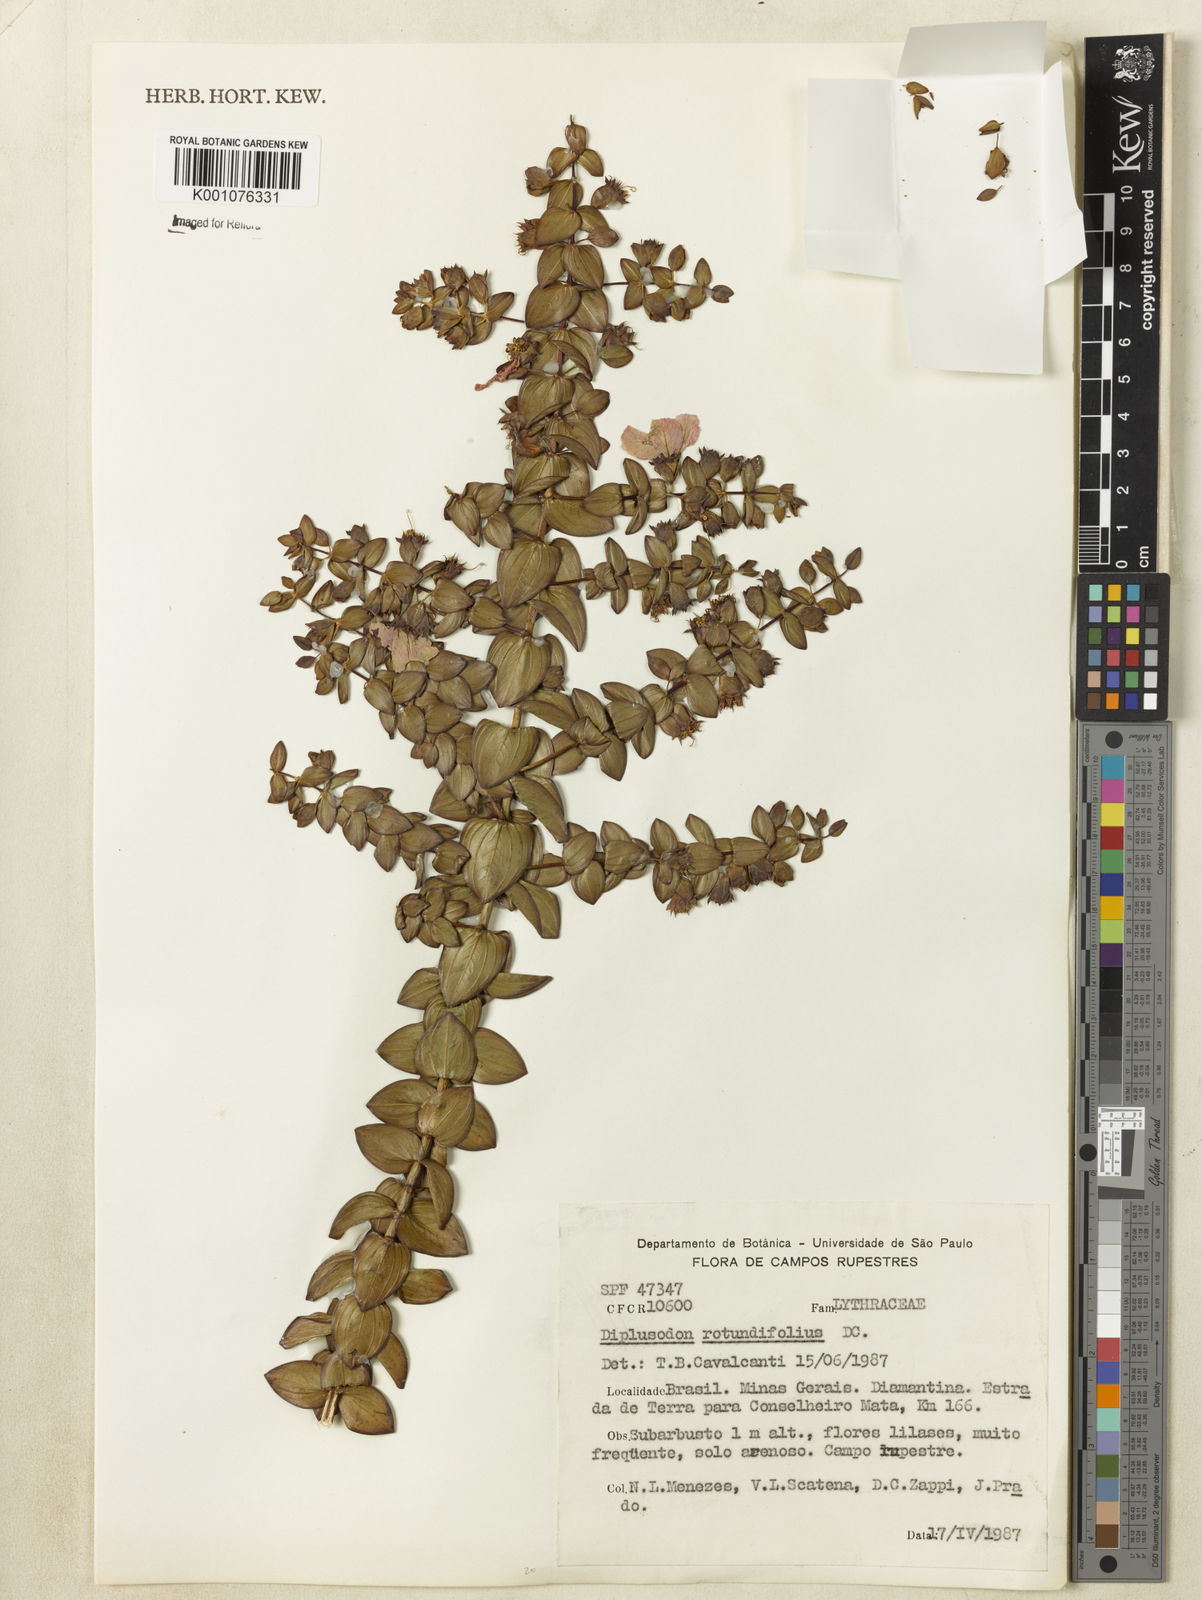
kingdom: Plantae
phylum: Tracheophyta
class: Magnoliopsida
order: Myrtales
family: Lythraceae
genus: Diplusodon
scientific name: Diplusodon rotundifolius
